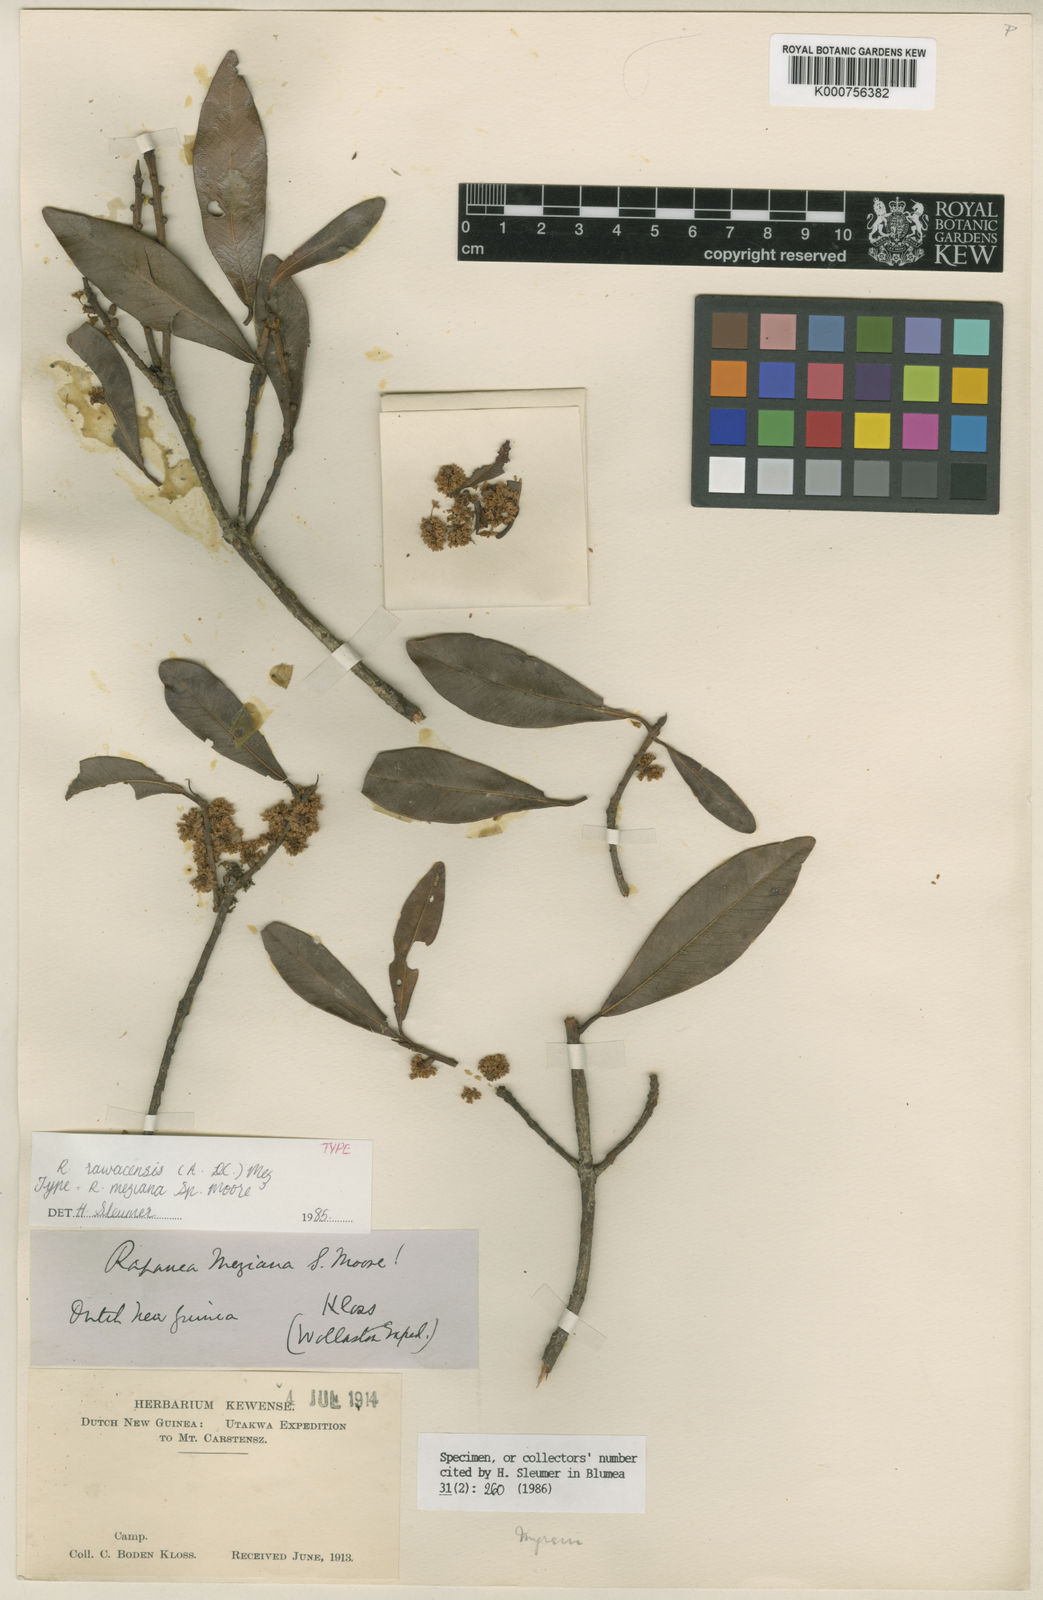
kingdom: Plantae
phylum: Tracheophyta
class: Magnoliopsida
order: Ericales
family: Primulaceae
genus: Myrsine
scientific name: Myrsine rawacensis
